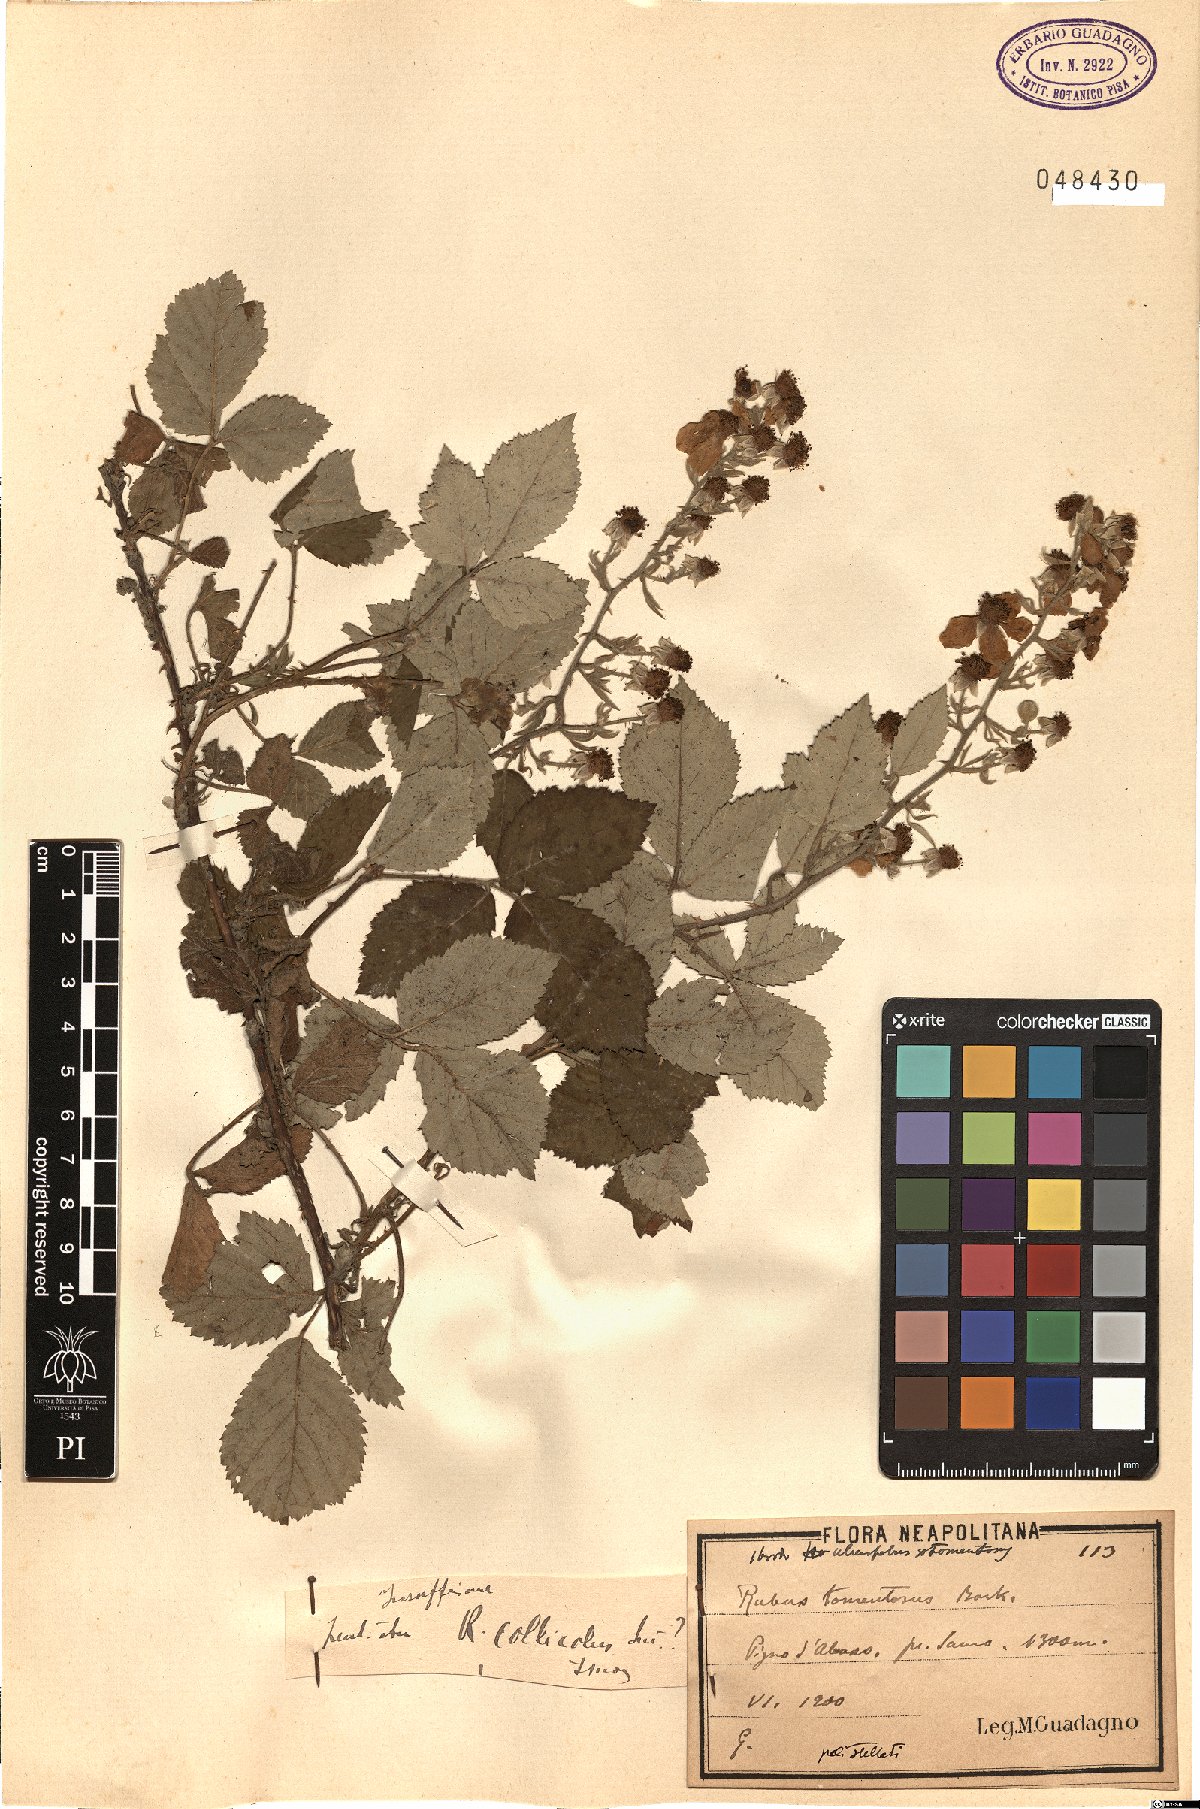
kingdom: Plantae
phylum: Tracheophyta
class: Magnoliopsida
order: Rosales
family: Rosaceae
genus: Rubus
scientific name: Rubus collicola
